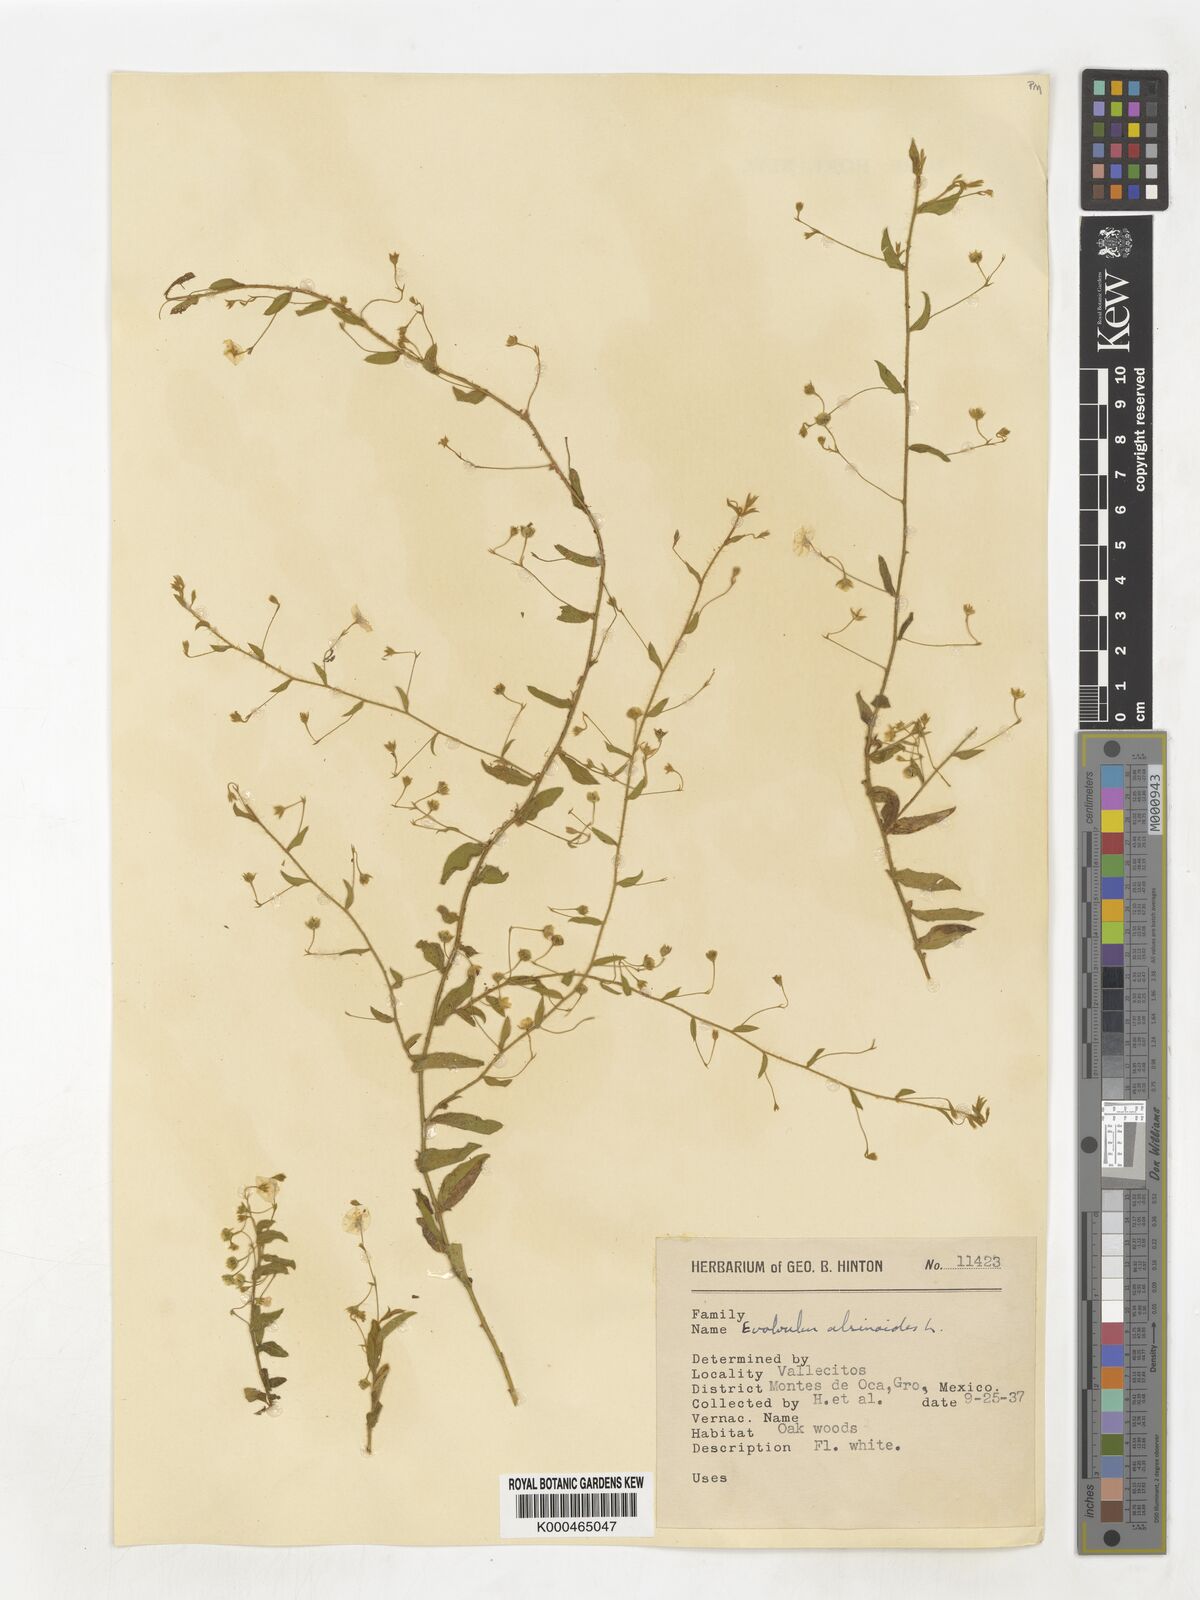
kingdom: Plantae
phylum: Tracheophyta
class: Magnoliopsida
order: Solanales
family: Convolvulaceae
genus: Evolvulus
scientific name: Evolvulus alsinoides
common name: Slender dwarf morning-glory
